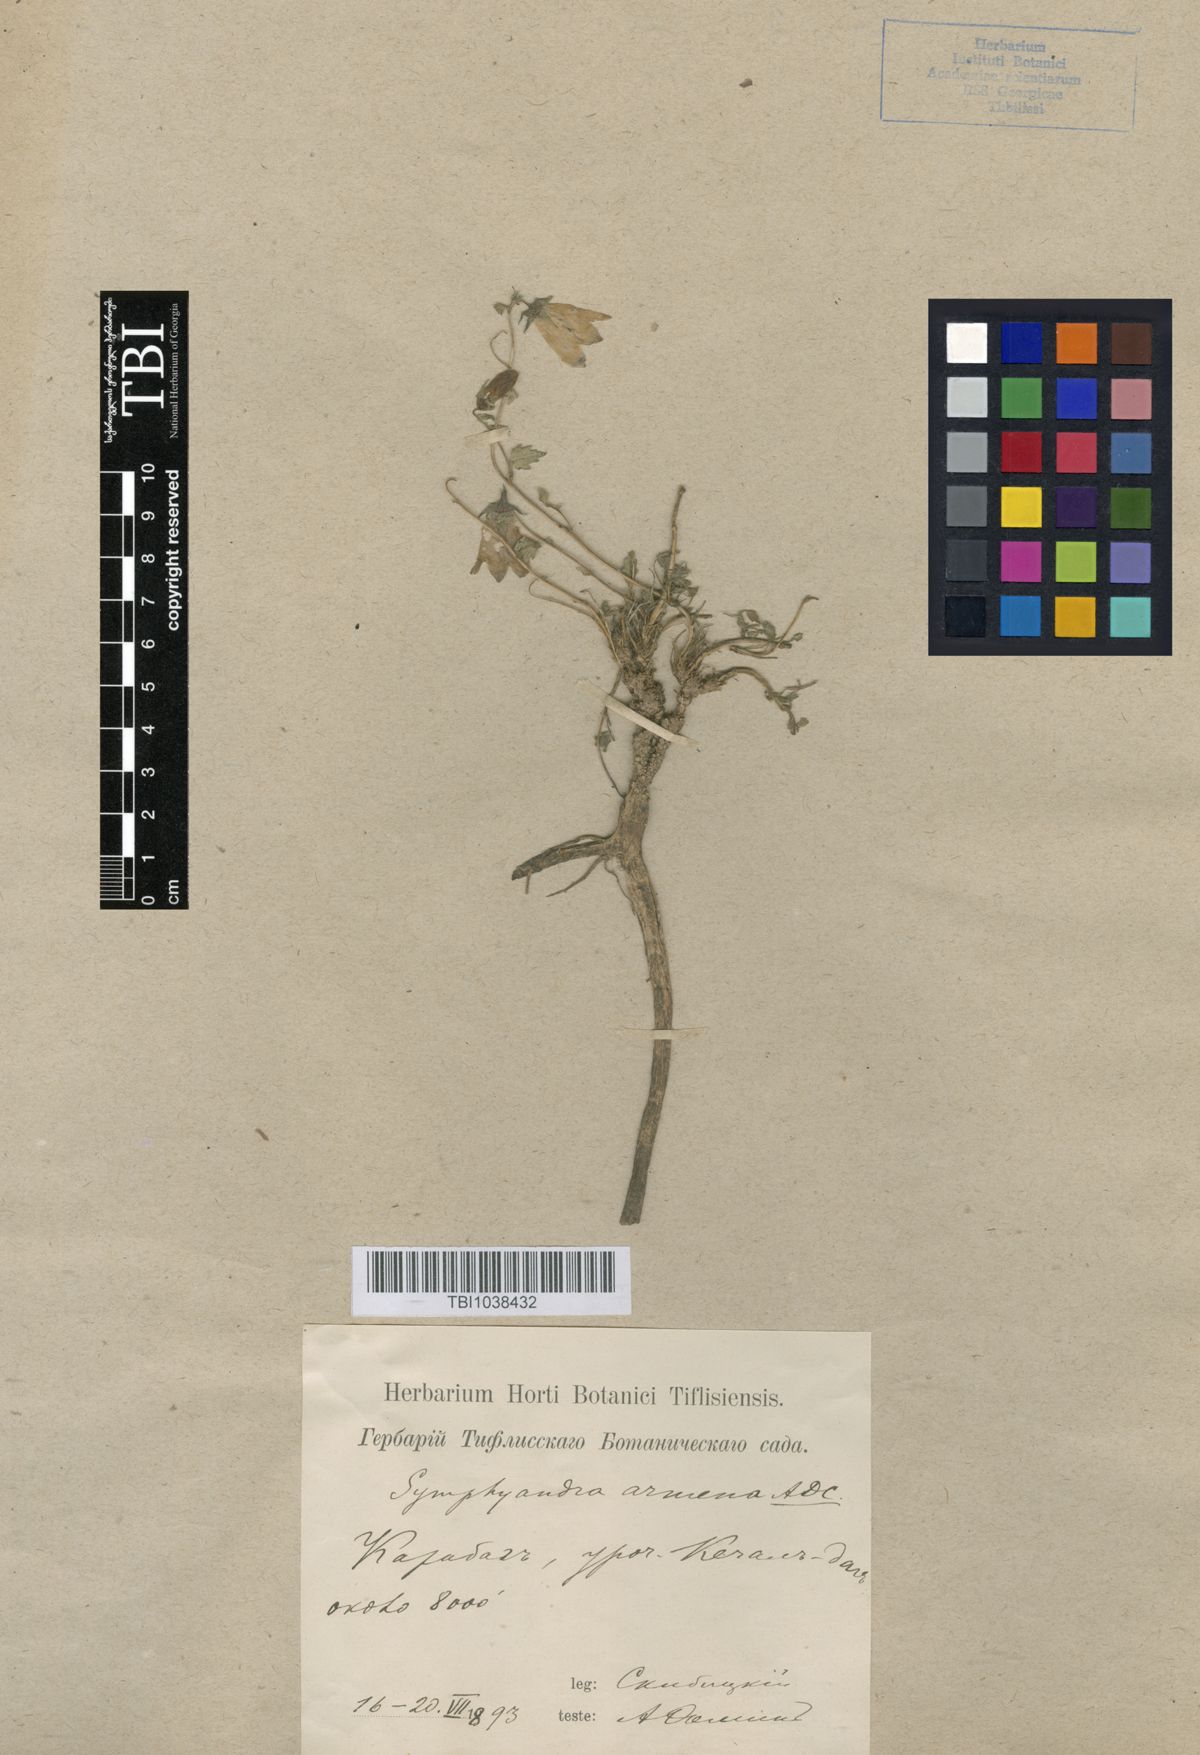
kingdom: Plantae
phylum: Tracheophyta
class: Magnoliopsida
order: Asterales
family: Campanulaceae
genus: Campanula
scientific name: Campanula armena
